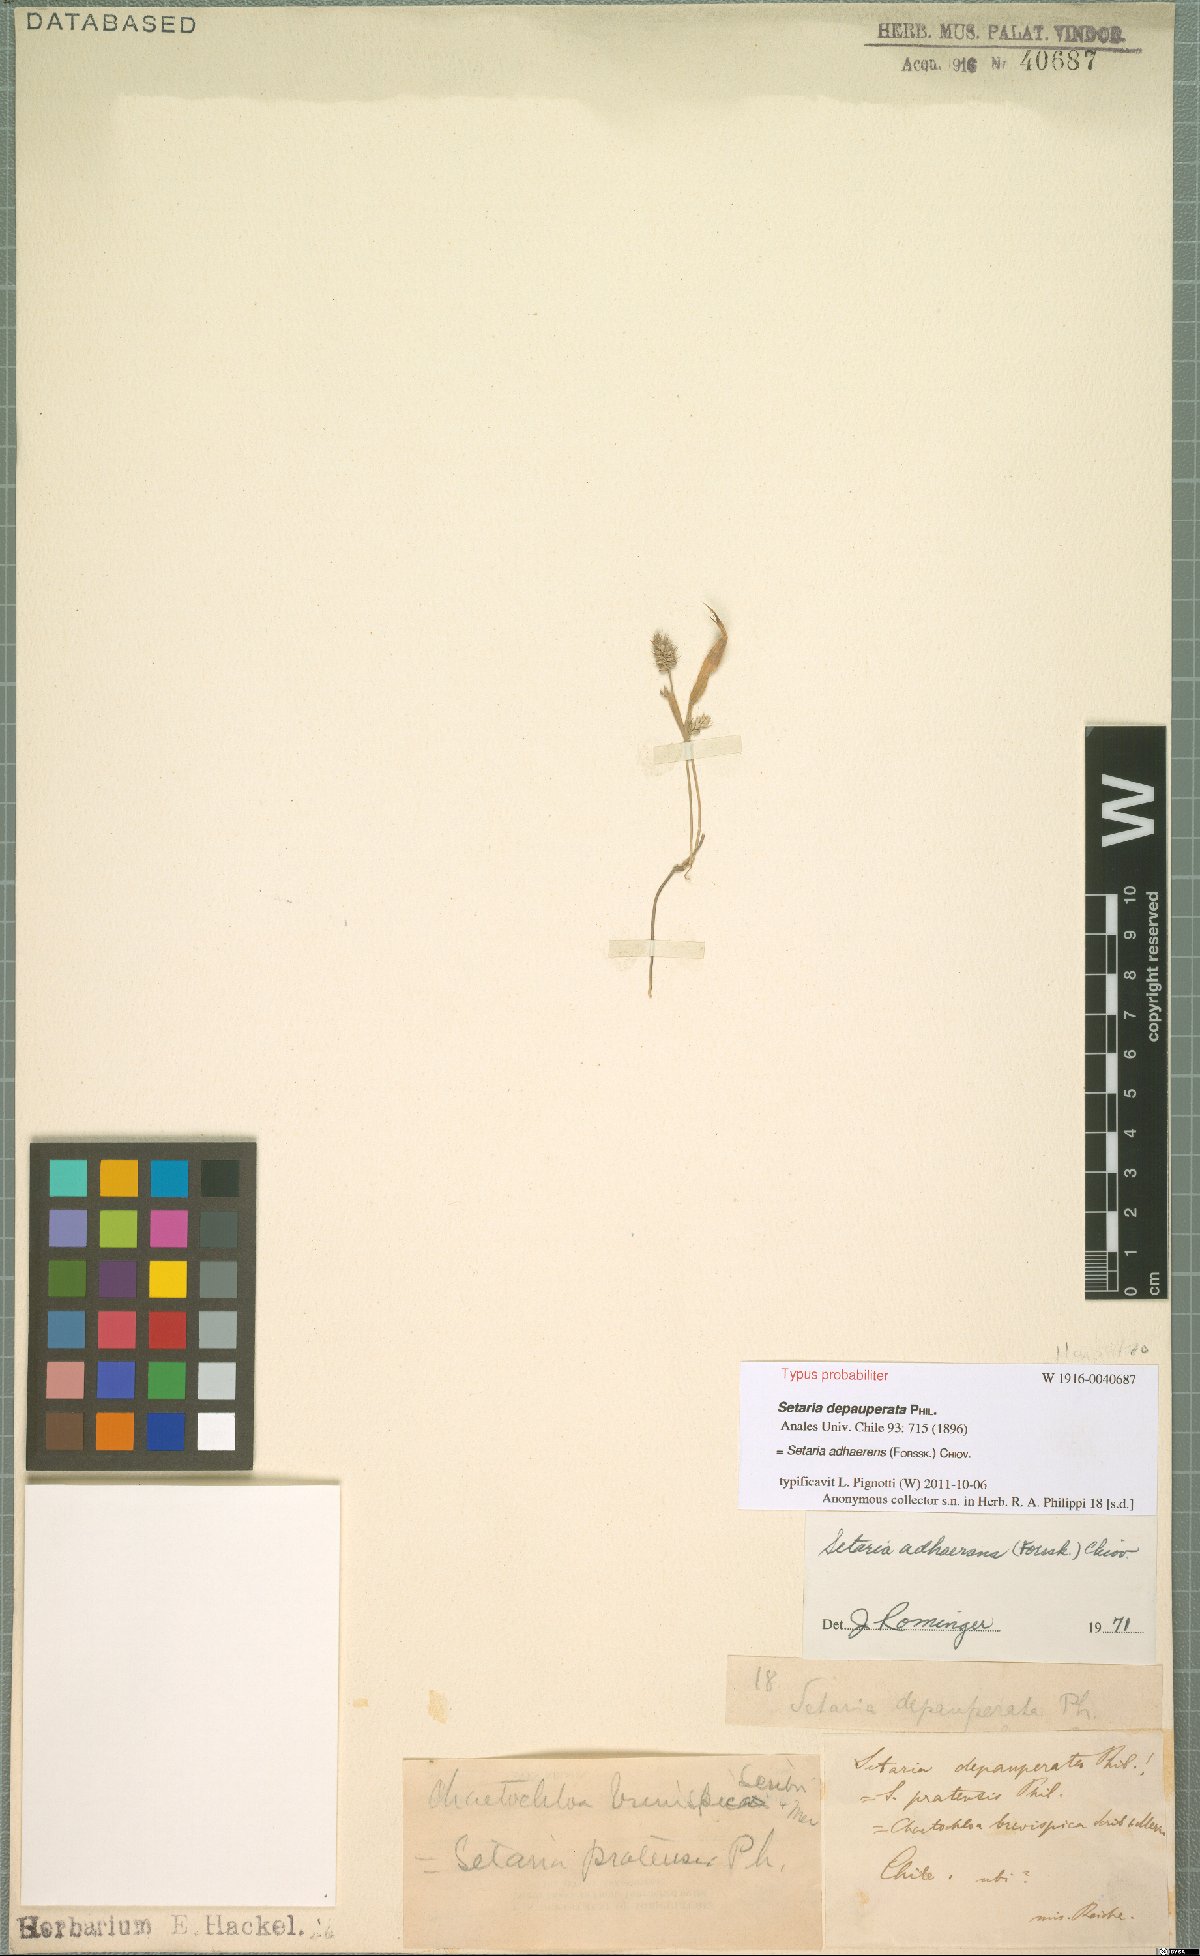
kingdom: Plantae
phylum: Tracheophyta
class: Liliopsida
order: Poales
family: Poaceae
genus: Setaria
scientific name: Setaria adhaerens
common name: Adherent bristle-grass
